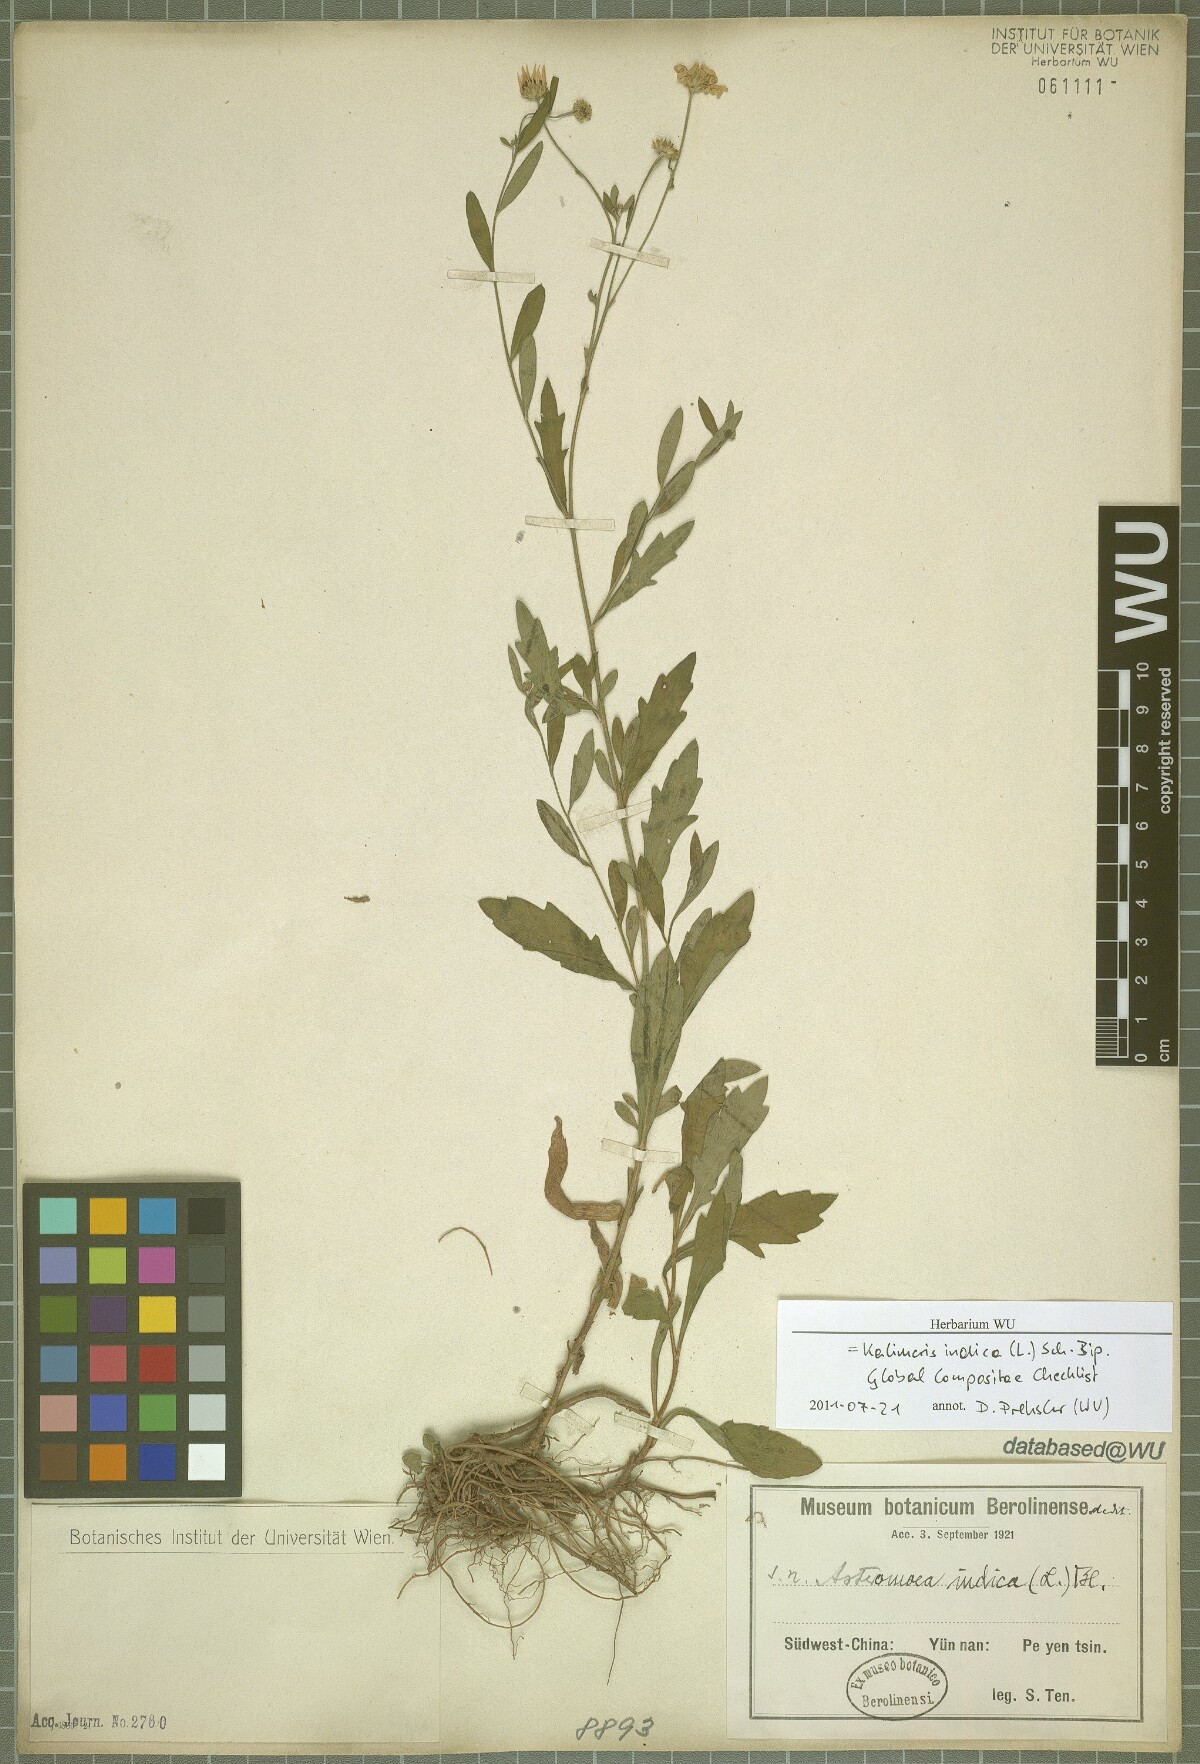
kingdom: Plantae
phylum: Tracheophyta
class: Magnoliopsida
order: Asterales
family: Asteraceae
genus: Kalimeris
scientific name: Kalimeris indica
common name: Indian aster
